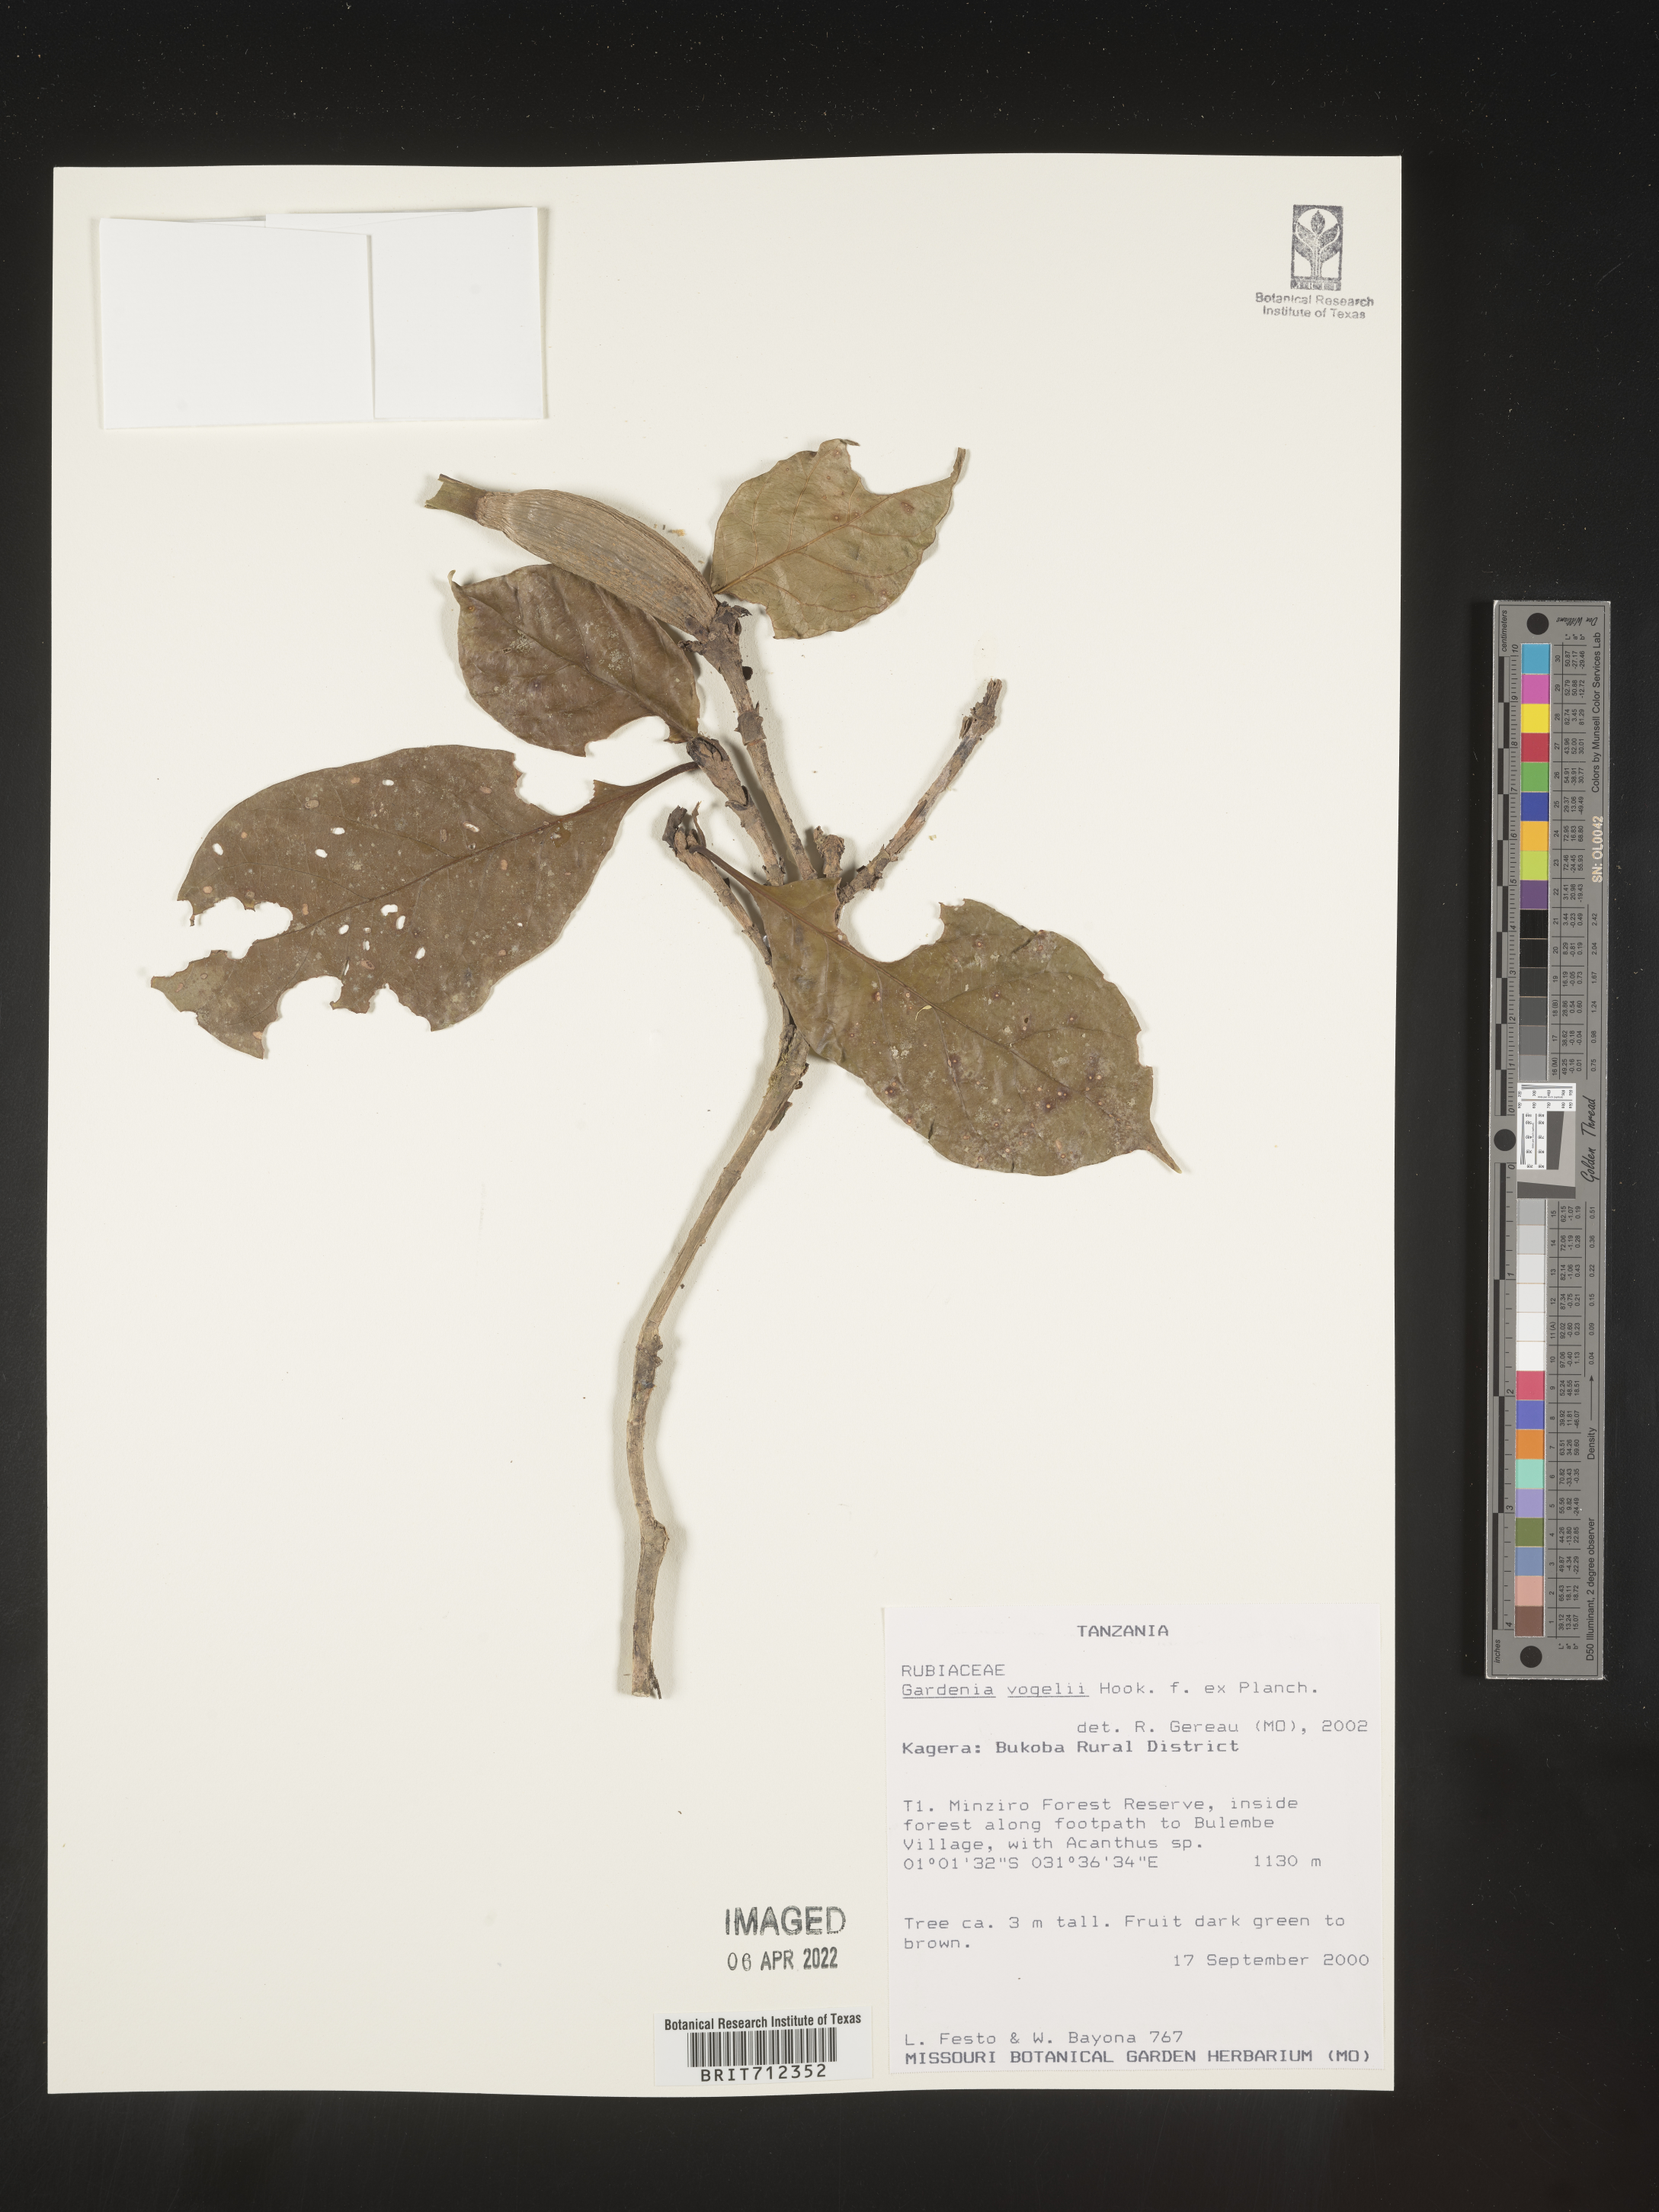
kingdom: Plantae
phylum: Tracheophyta
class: Magnoliopsida
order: Gentianales
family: Rubiaceae
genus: Gardenia
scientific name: Gardenia
